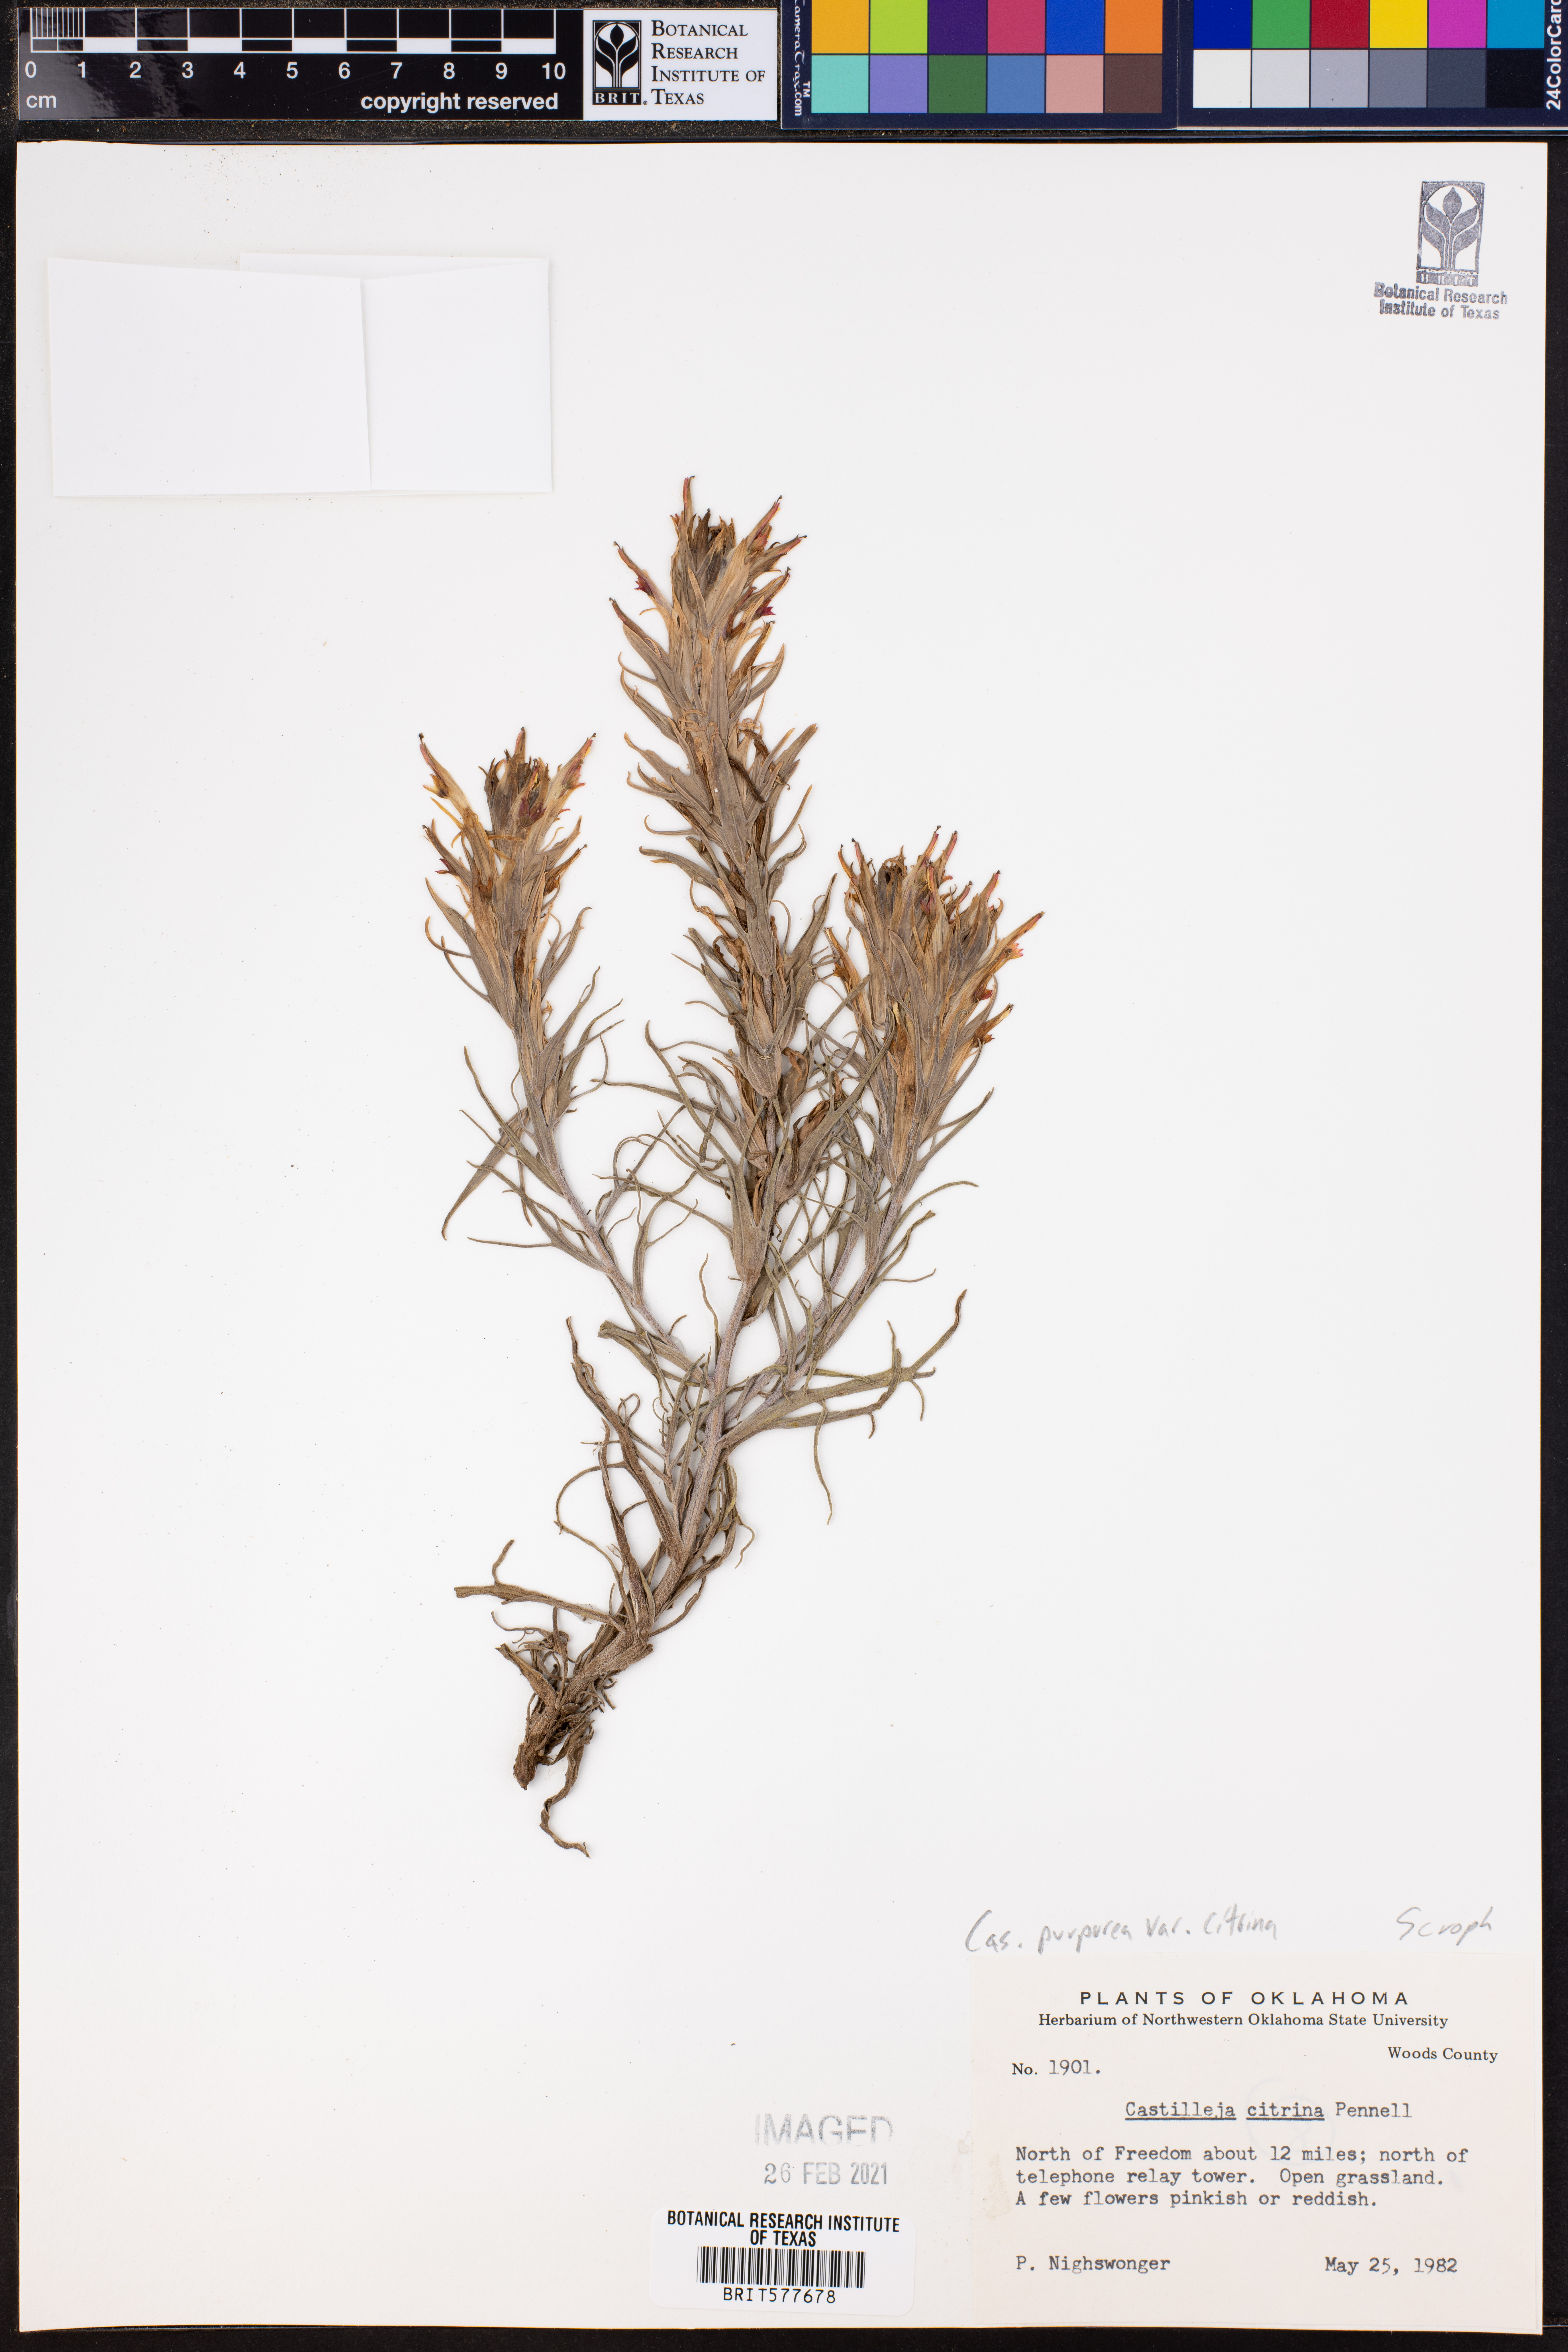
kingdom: Plantae
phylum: Tracheophyta
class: Magnoliopsida
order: Lamiales
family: Orobanchaceae
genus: Castilleja
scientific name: Castilleja citrina
